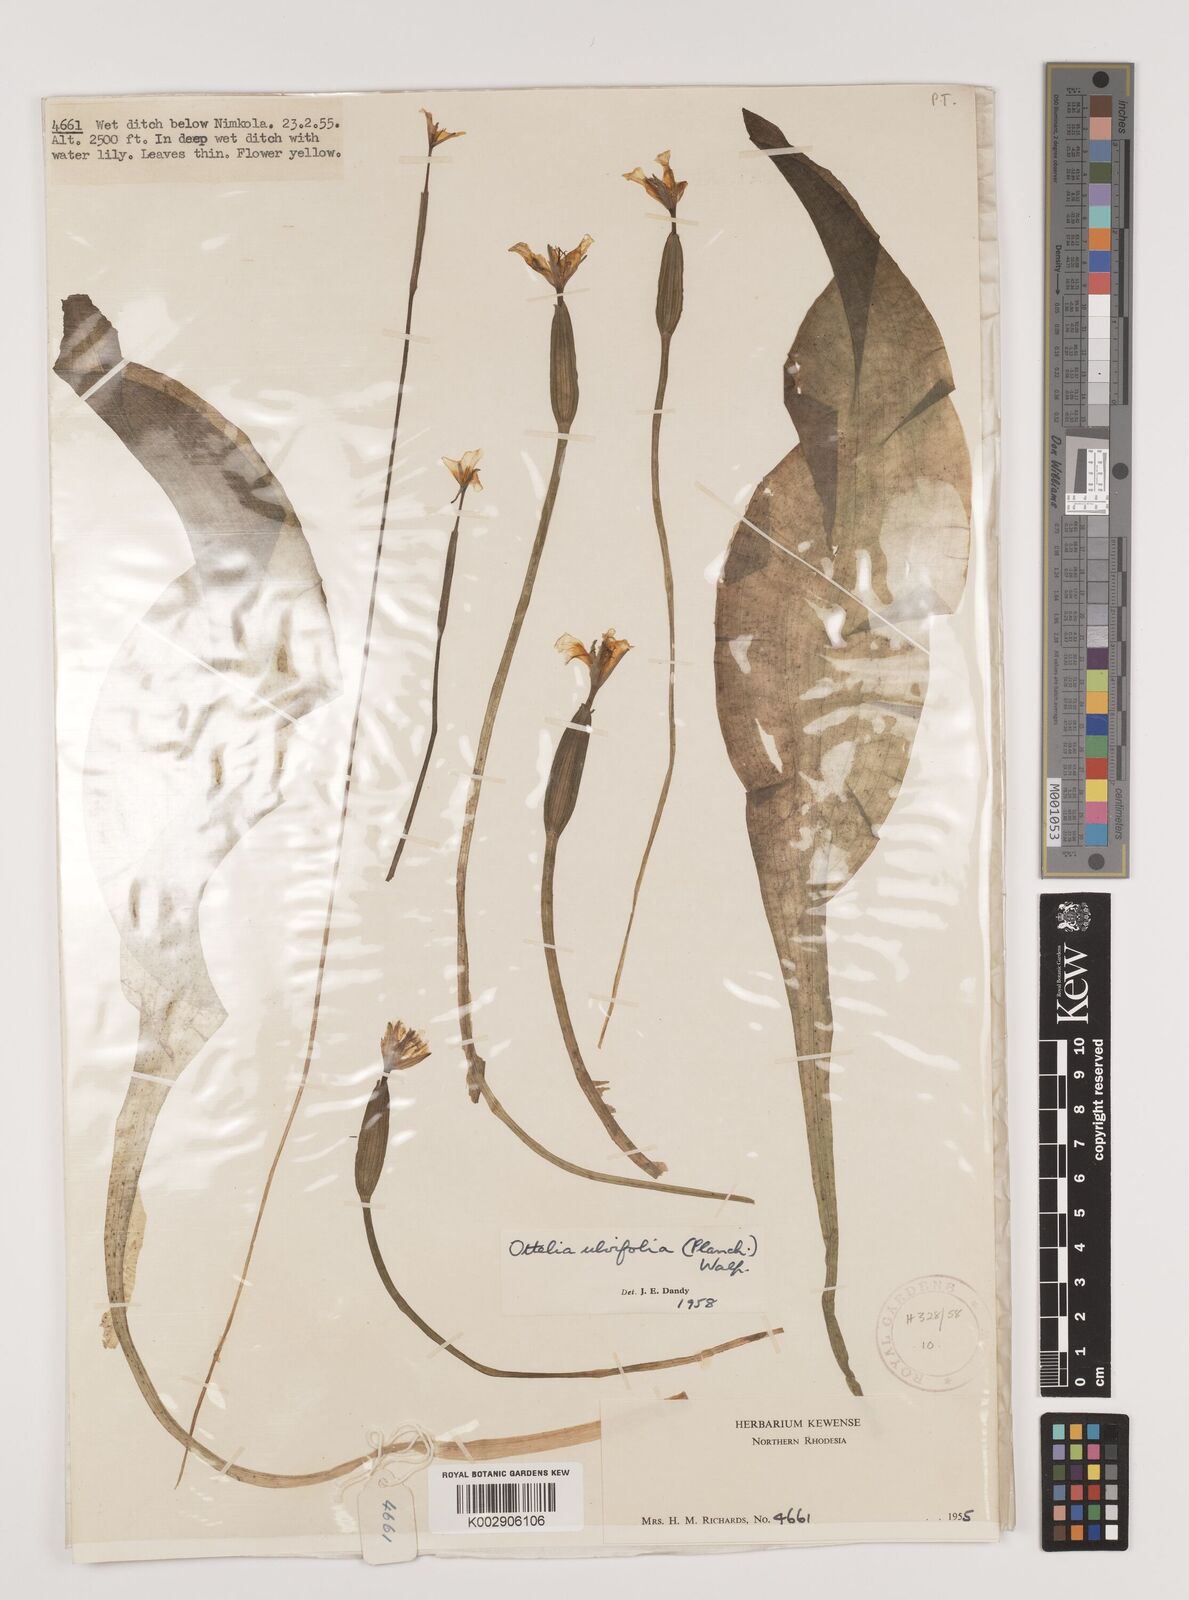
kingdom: Plantae
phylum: Tracheophyta
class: Liliopsida
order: Alismatales
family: Hydrocharitaceae
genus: Ottelia
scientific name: Ottelia ulvifolia
